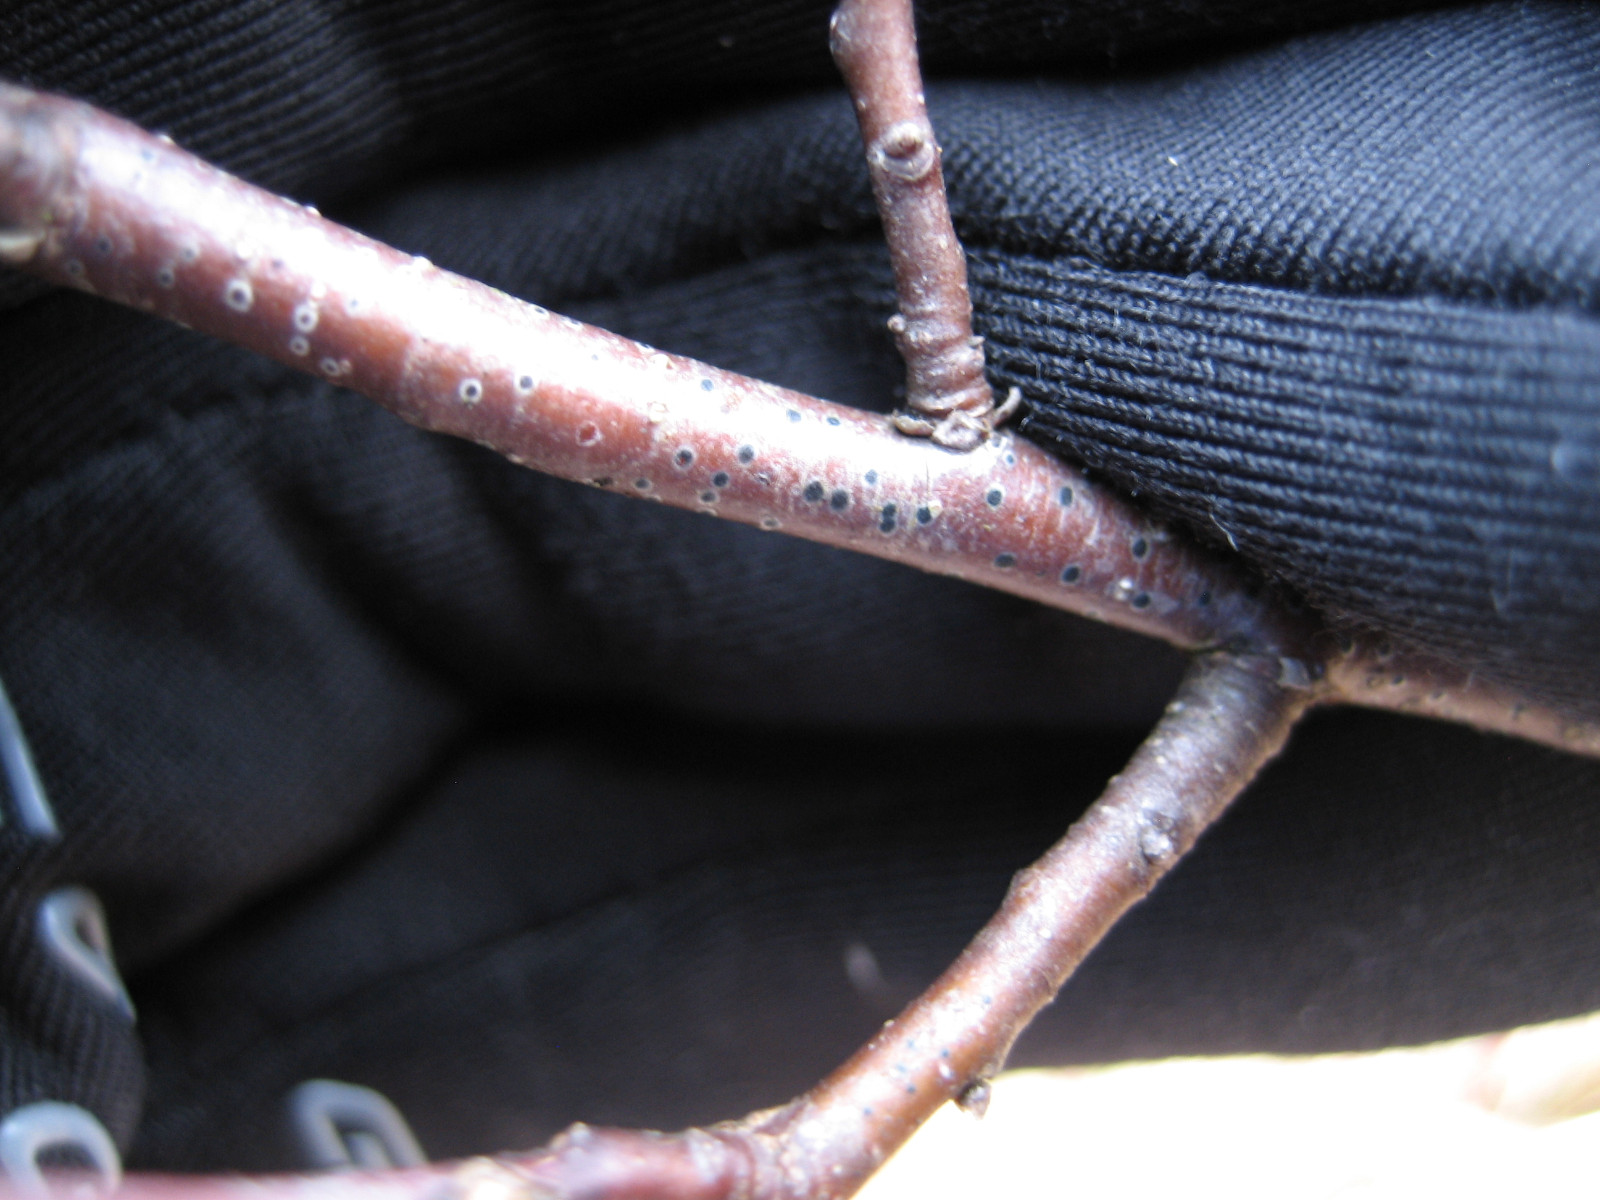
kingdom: Fungi
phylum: Ascomycota
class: Dothideomycetes
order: Dothideales
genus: Mycoglaena
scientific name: Mycoglaena myricae
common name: liden porsprik
